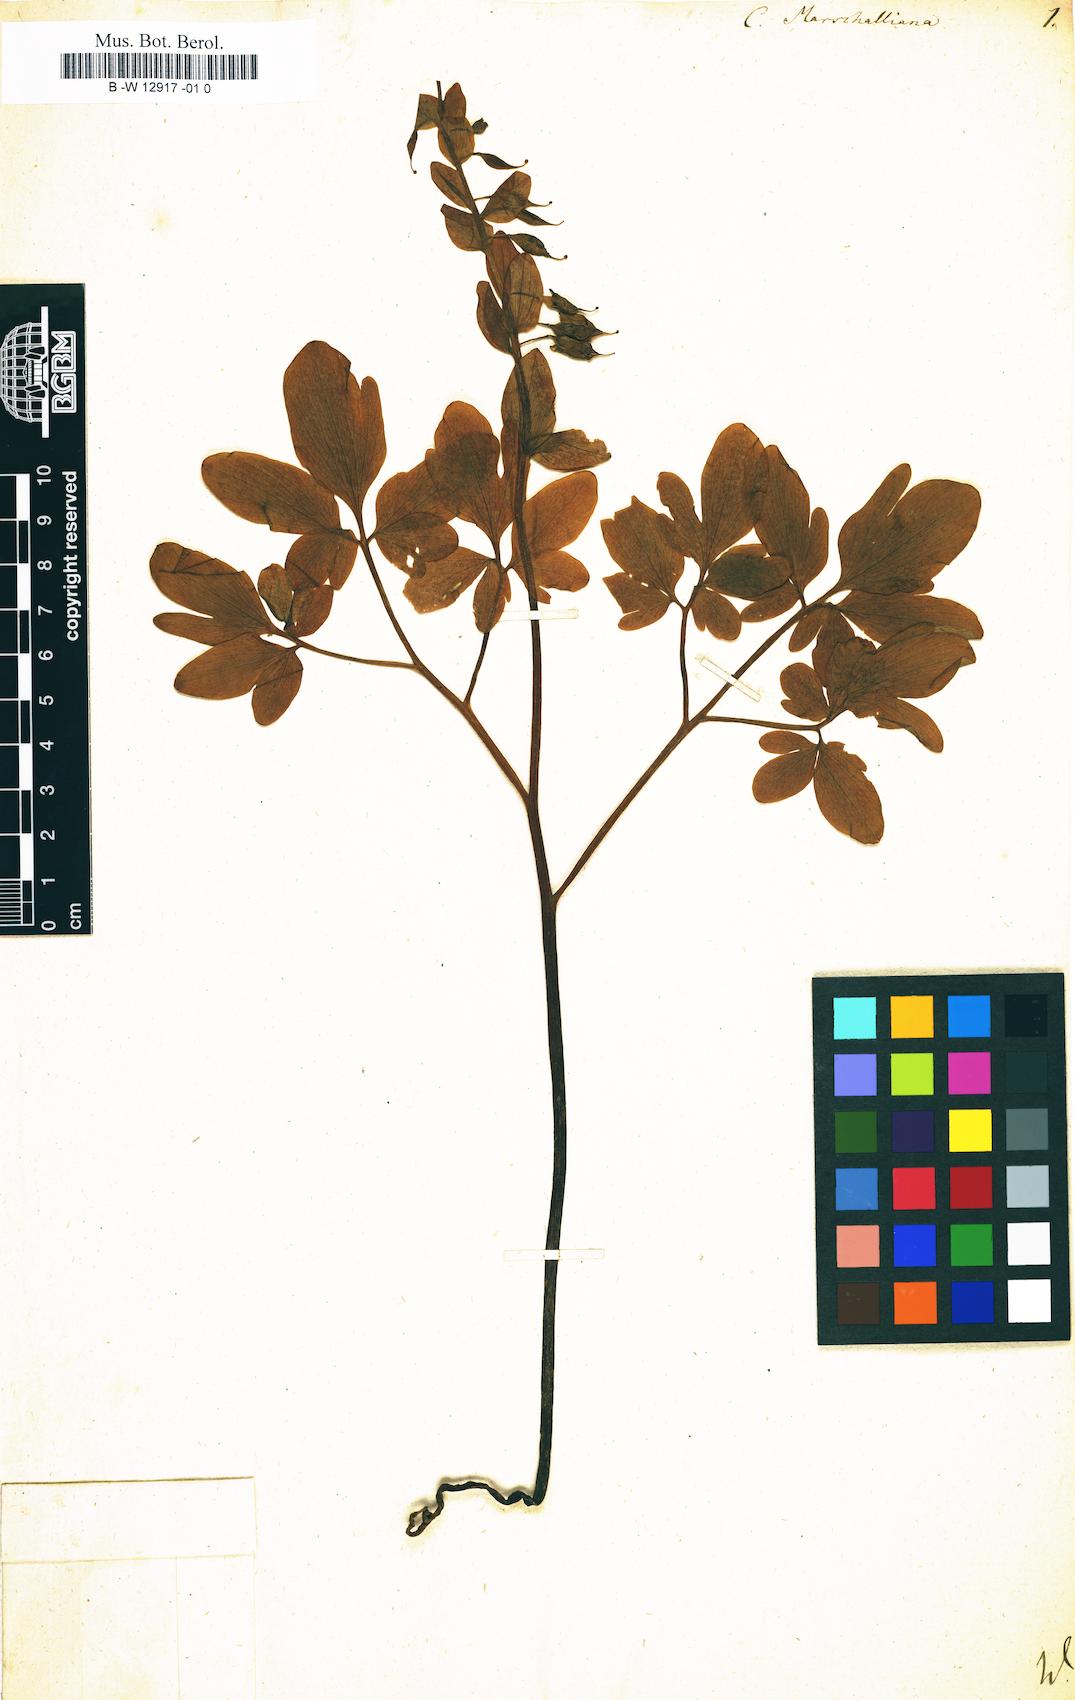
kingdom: Plantae
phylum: Tracheophyta
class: Magnoliopsida
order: Ranunculales
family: Papaveraceae
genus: Fumaria
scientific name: Fumaria marschalliana
